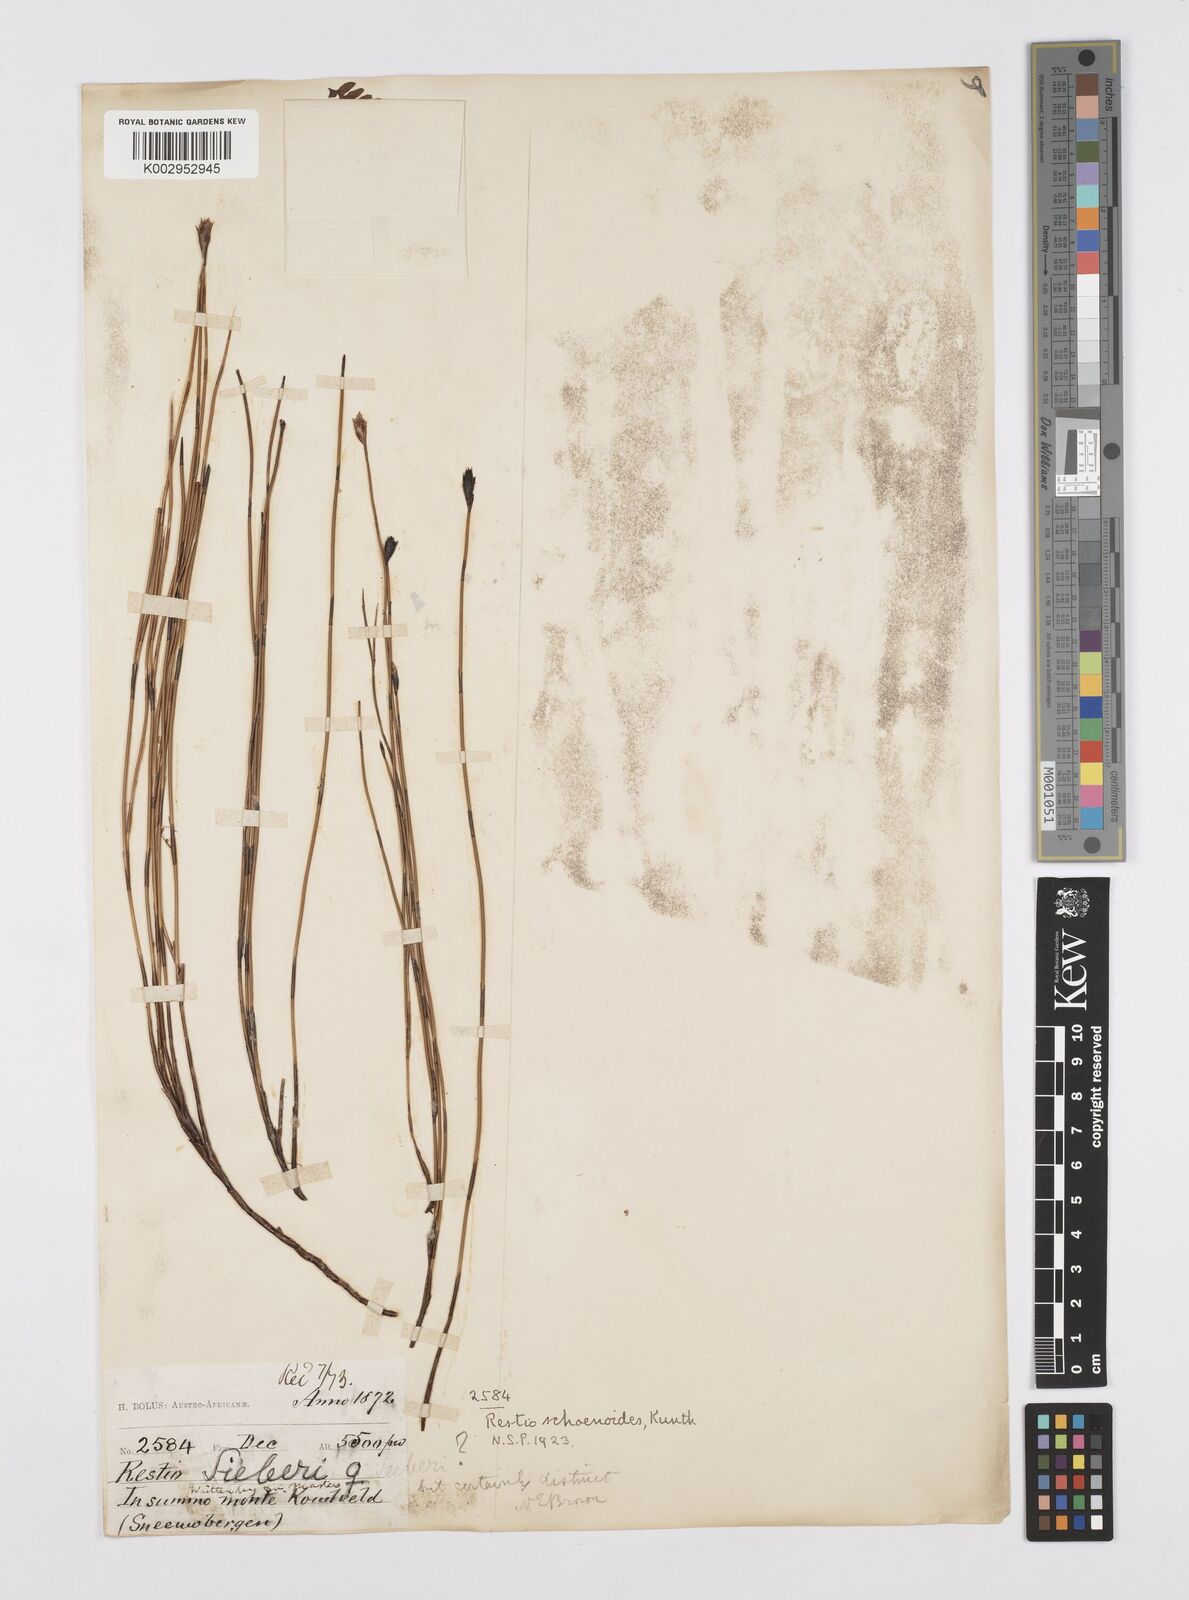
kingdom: Plantae
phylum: Tracheophyta
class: Liliopsida
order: Poales
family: Restionaceae
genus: Restio
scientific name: Restio schoenoides
